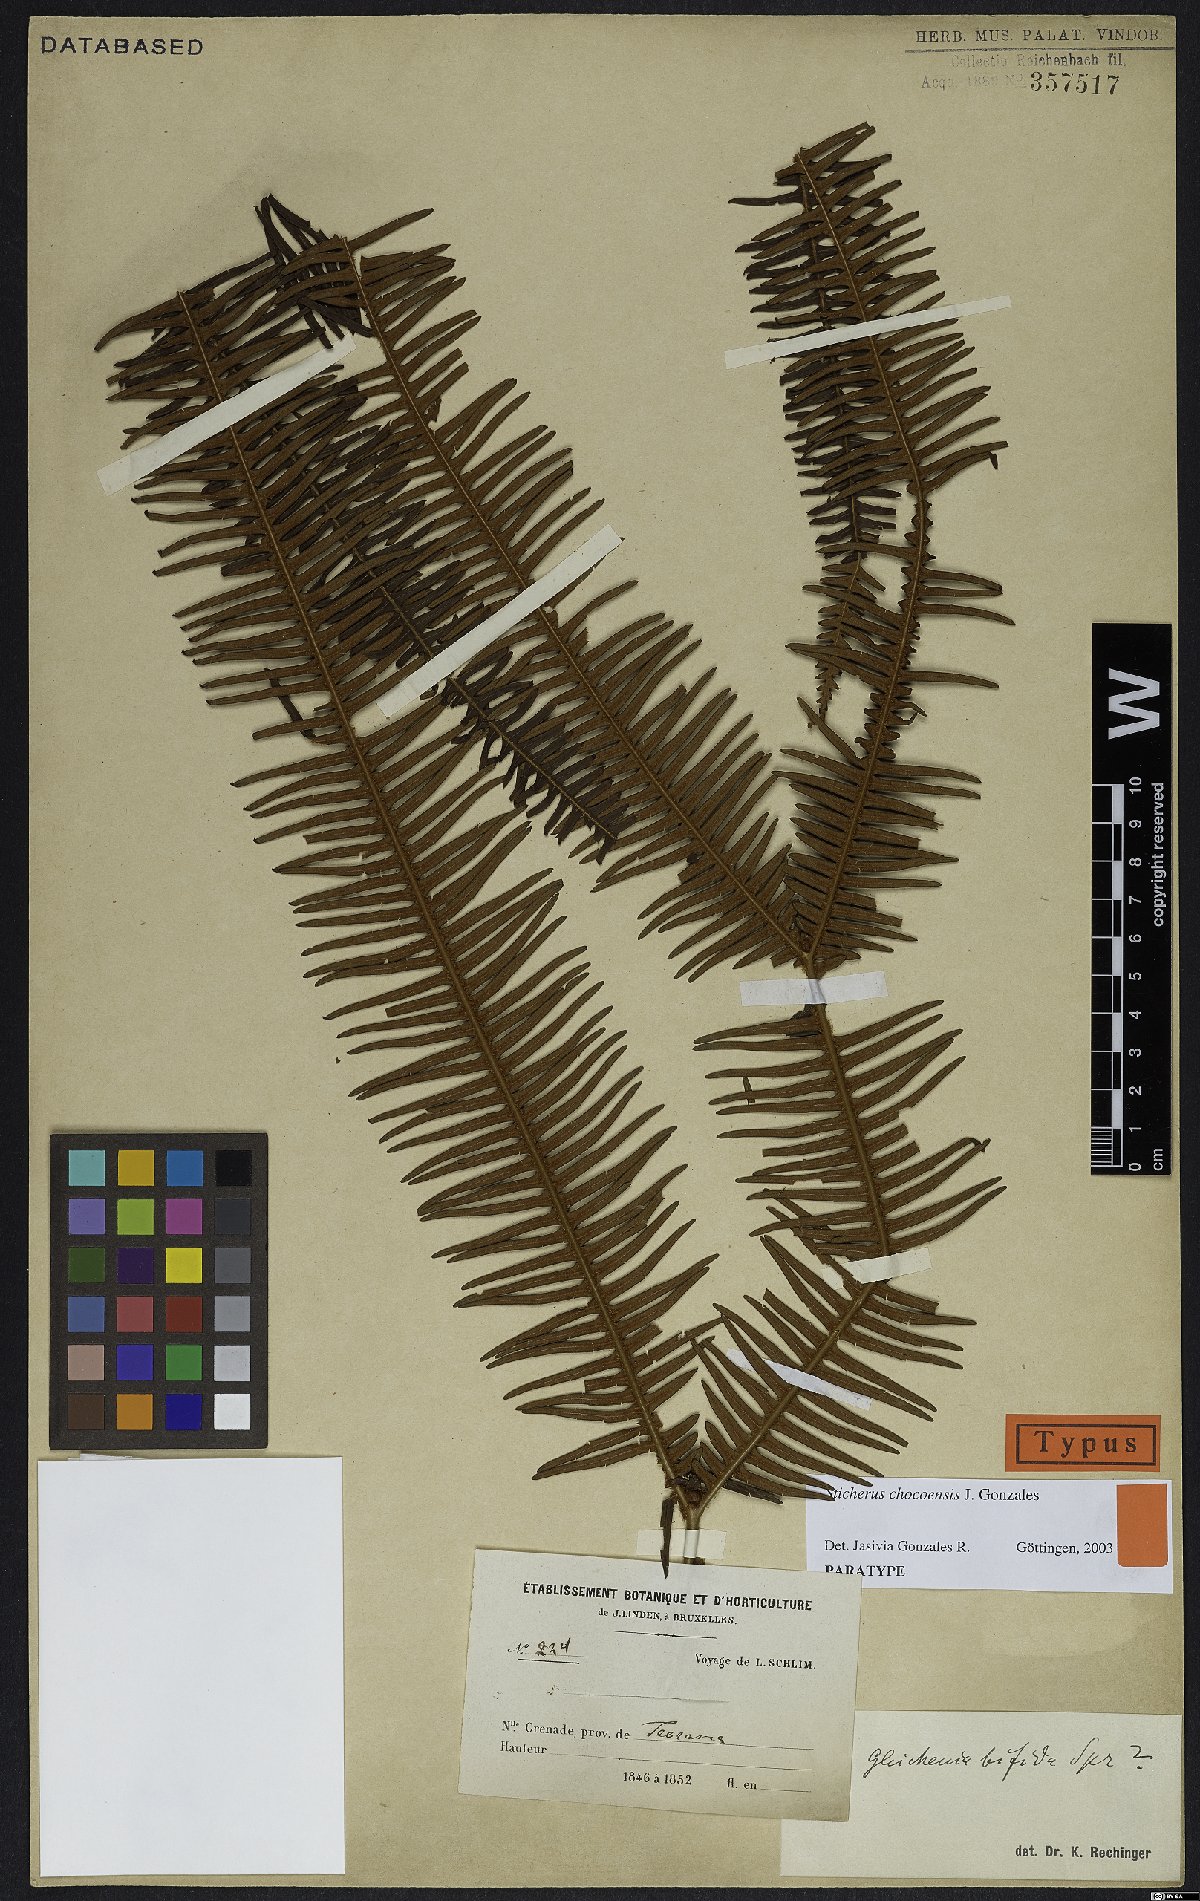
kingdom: Plantae
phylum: Tracheophyta
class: Polypodiopsida
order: Gleicheniales
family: Gleicheniaceae
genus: Sticherus
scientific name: Sticherus chocoensis
